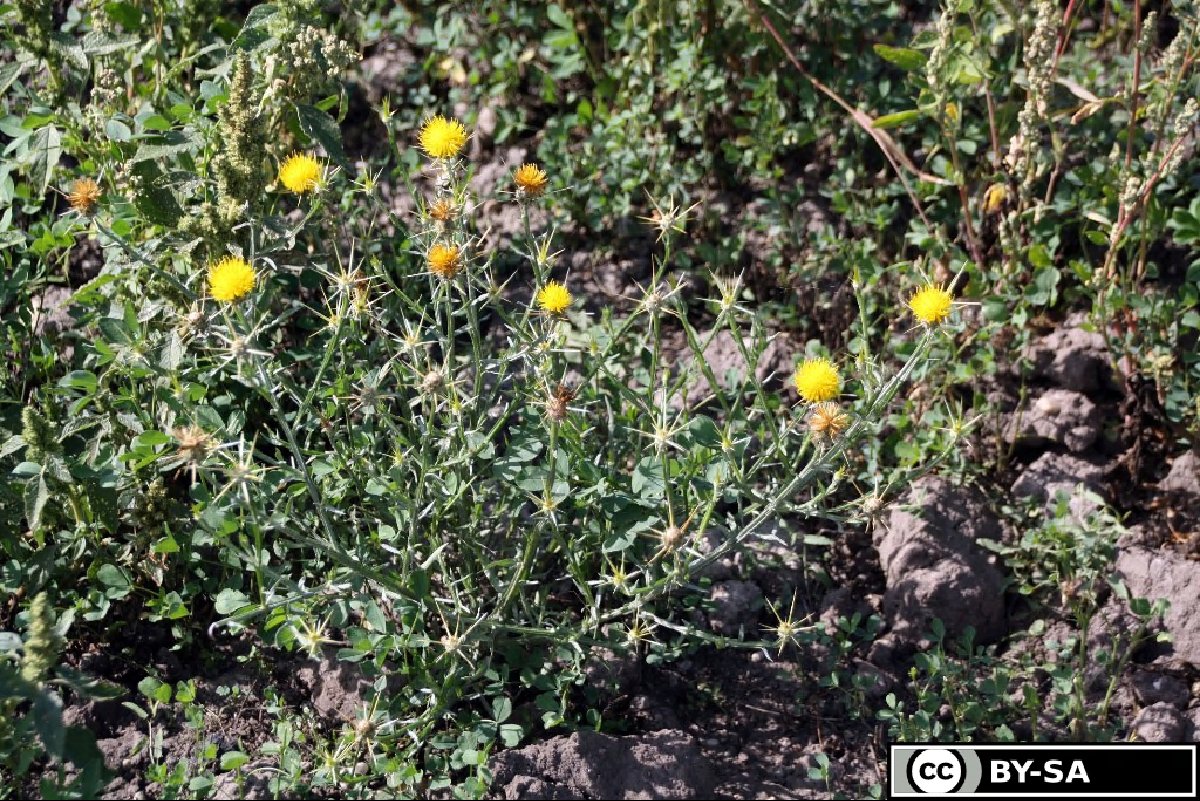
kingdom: Plantae
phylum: Tracheophyta
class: Magnoliopsida
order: Asterales
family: Asteraceae
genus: Centaurea
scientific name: Centaurea solstitialis
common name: Yellow star-thistle
